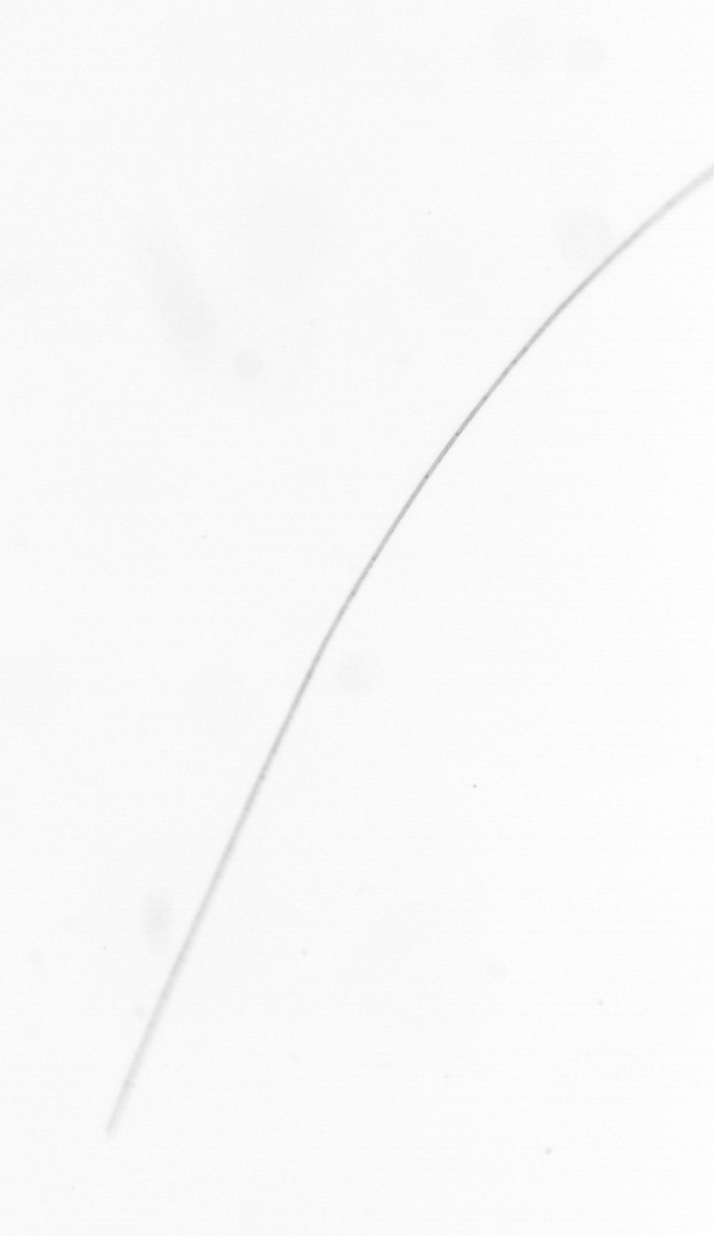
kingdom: Chromista
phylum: Ochrophyta
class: Bacillariophyceae
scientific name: Bacillariophyceae
